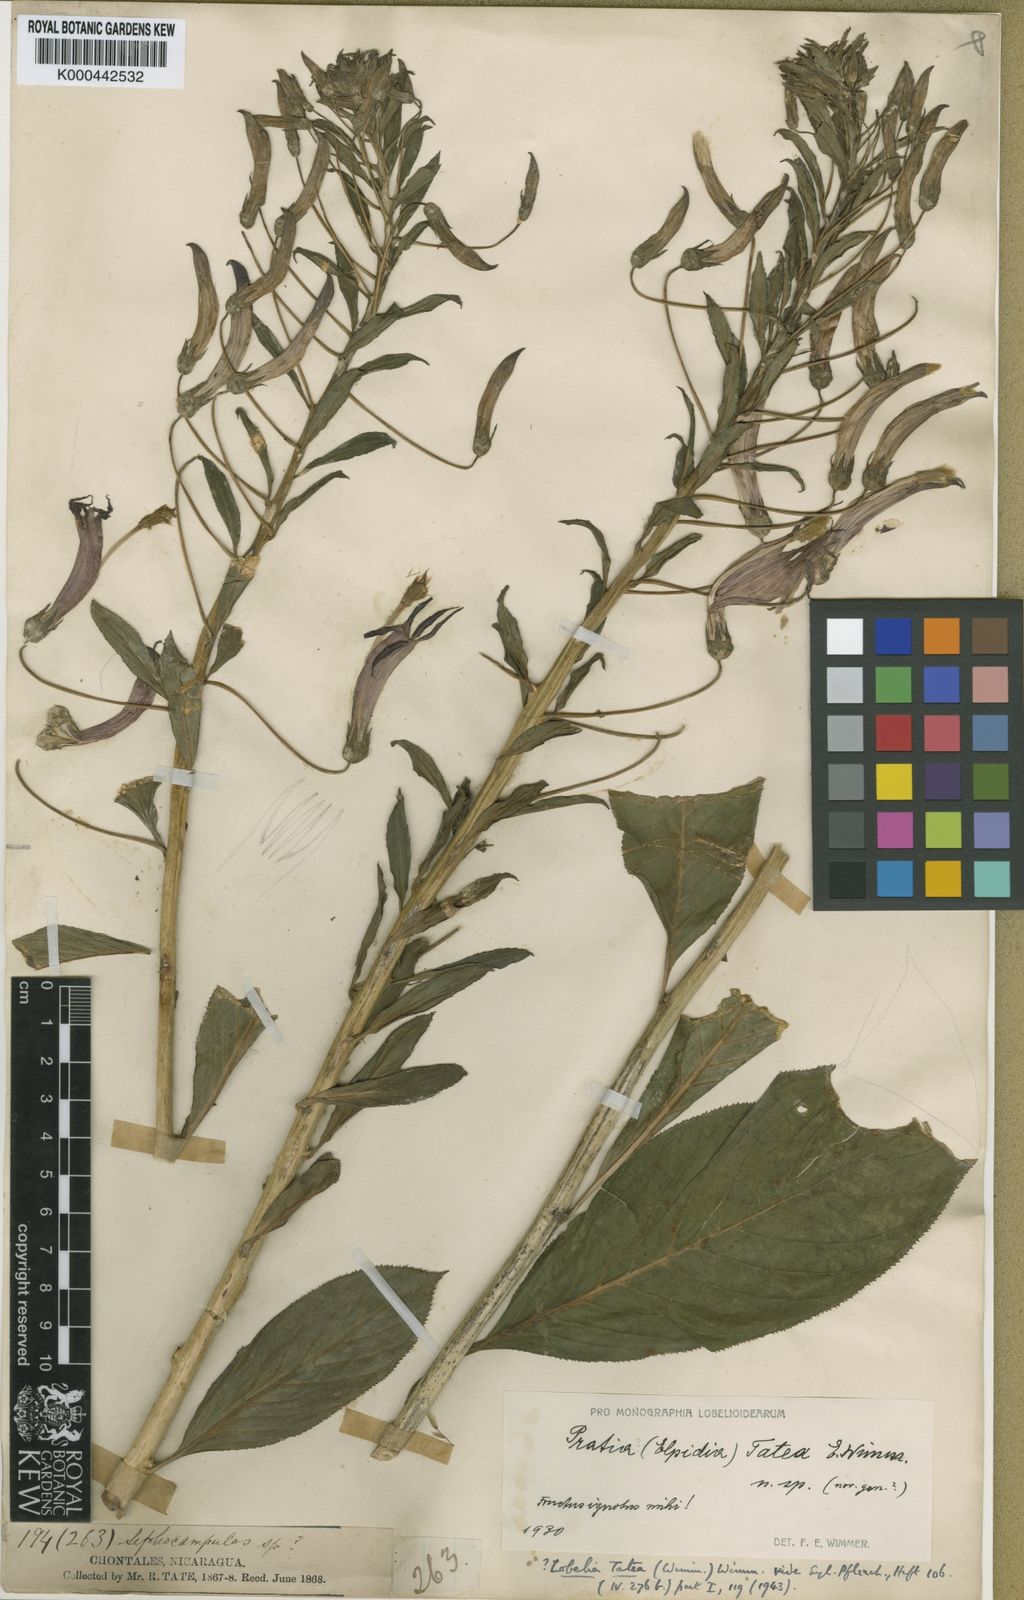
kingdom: Plantae
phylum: Tracheophyta
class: Magnoliopsida
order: Asterales
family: Campanulaceae
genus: Lobelia
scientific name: Lobelia tatea
